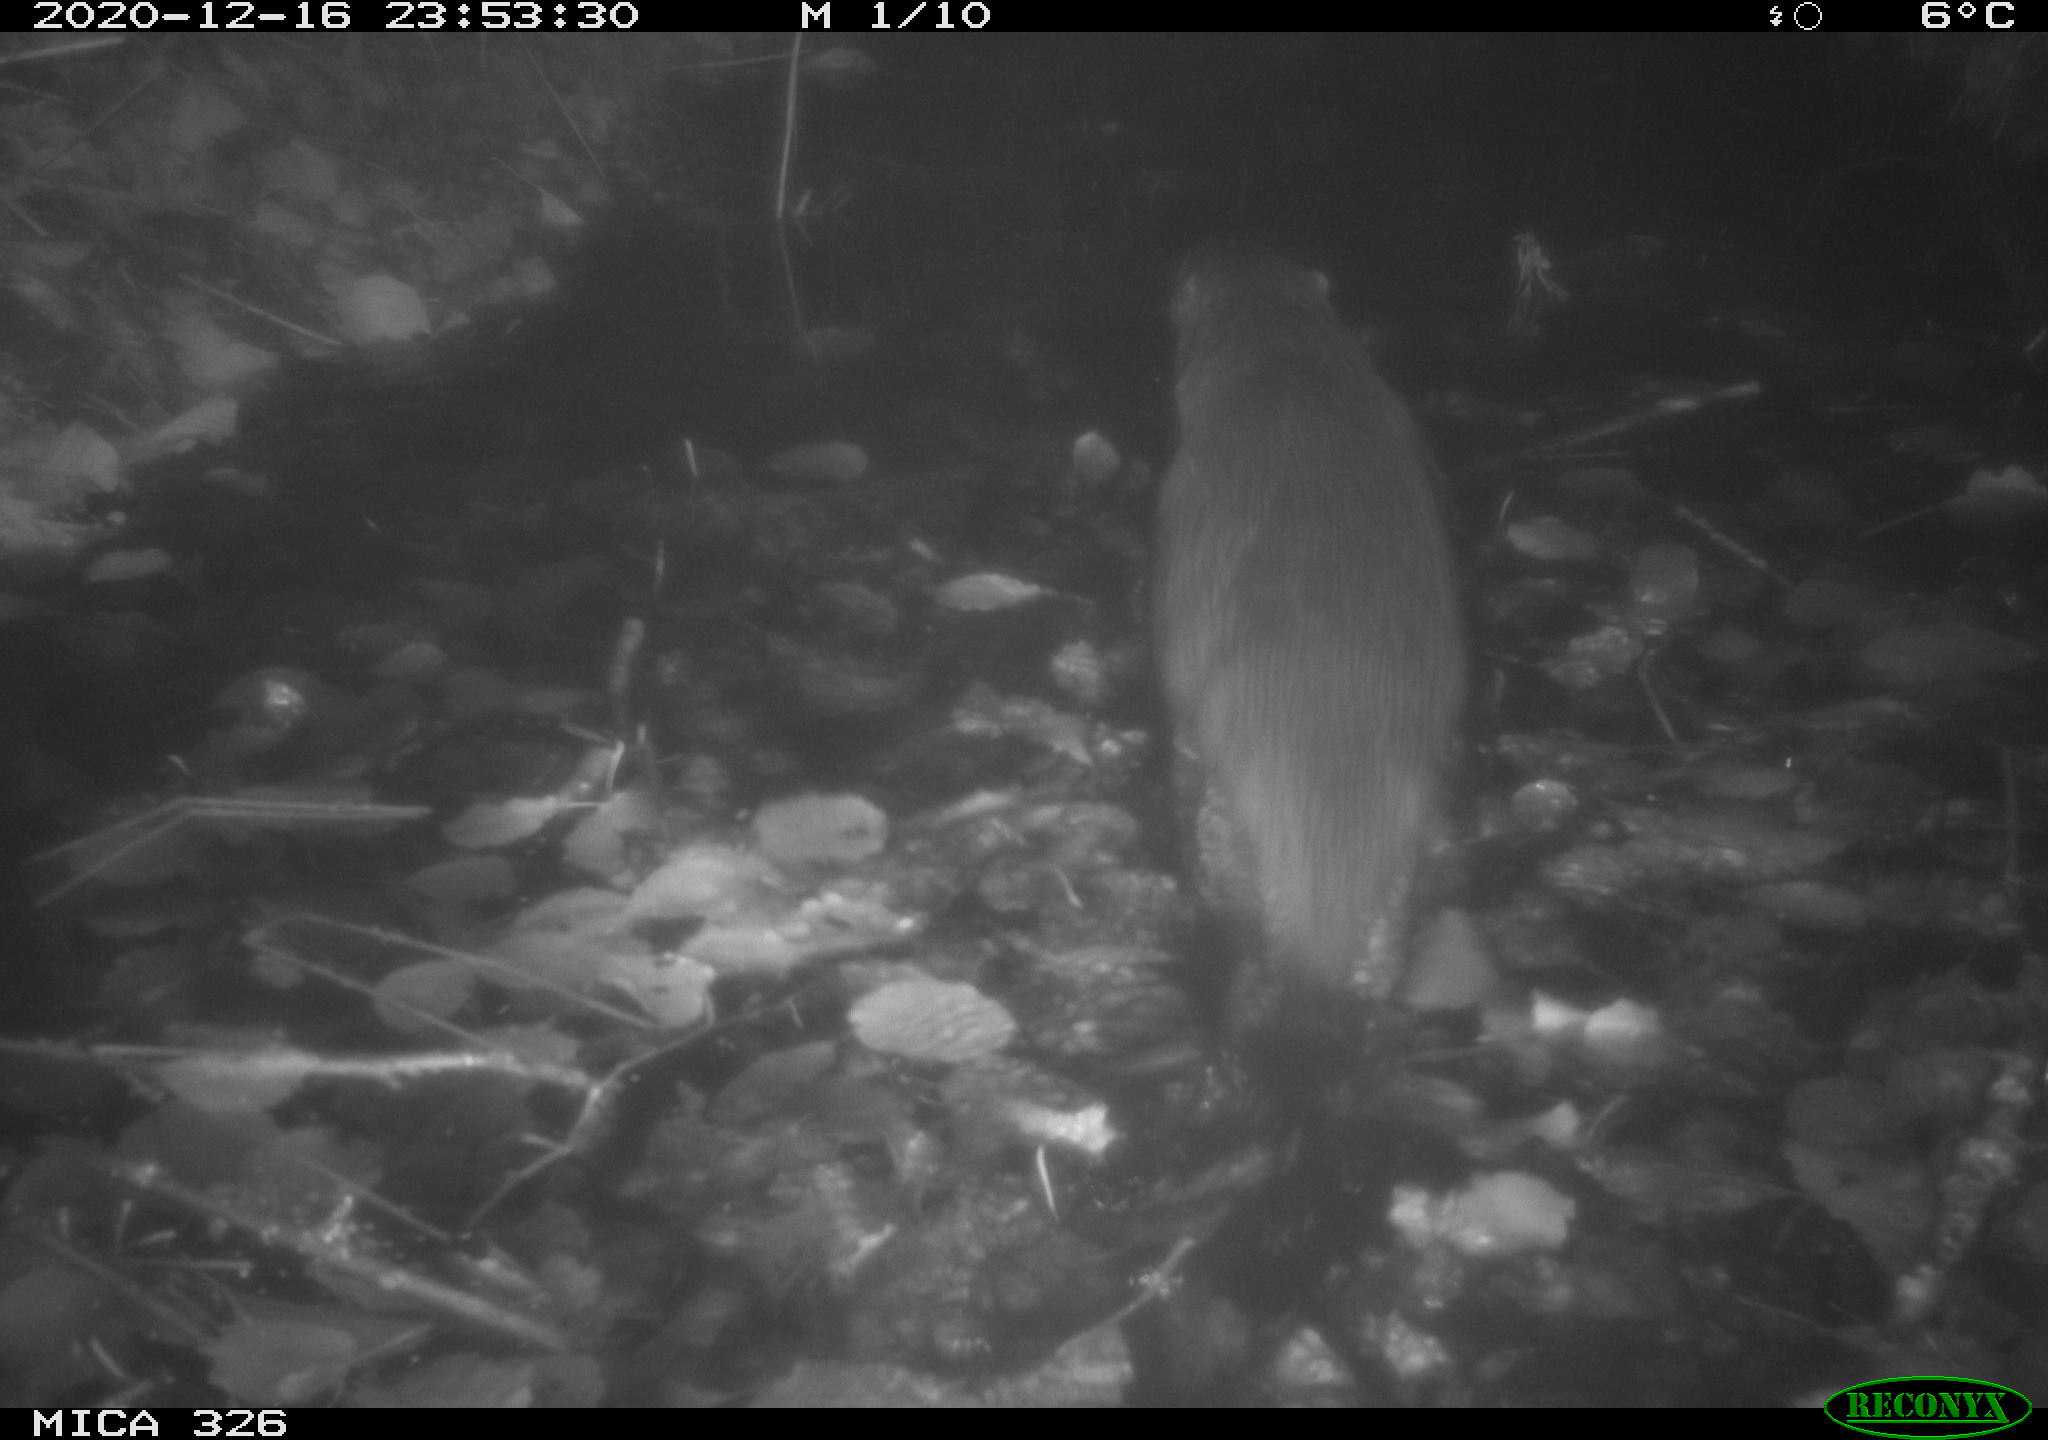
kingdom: Animalia
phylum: Chordata
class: Mammalia
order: Carnivora
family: Mustelidae
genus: Lutra
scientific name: Lutra lutra
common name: European otter
